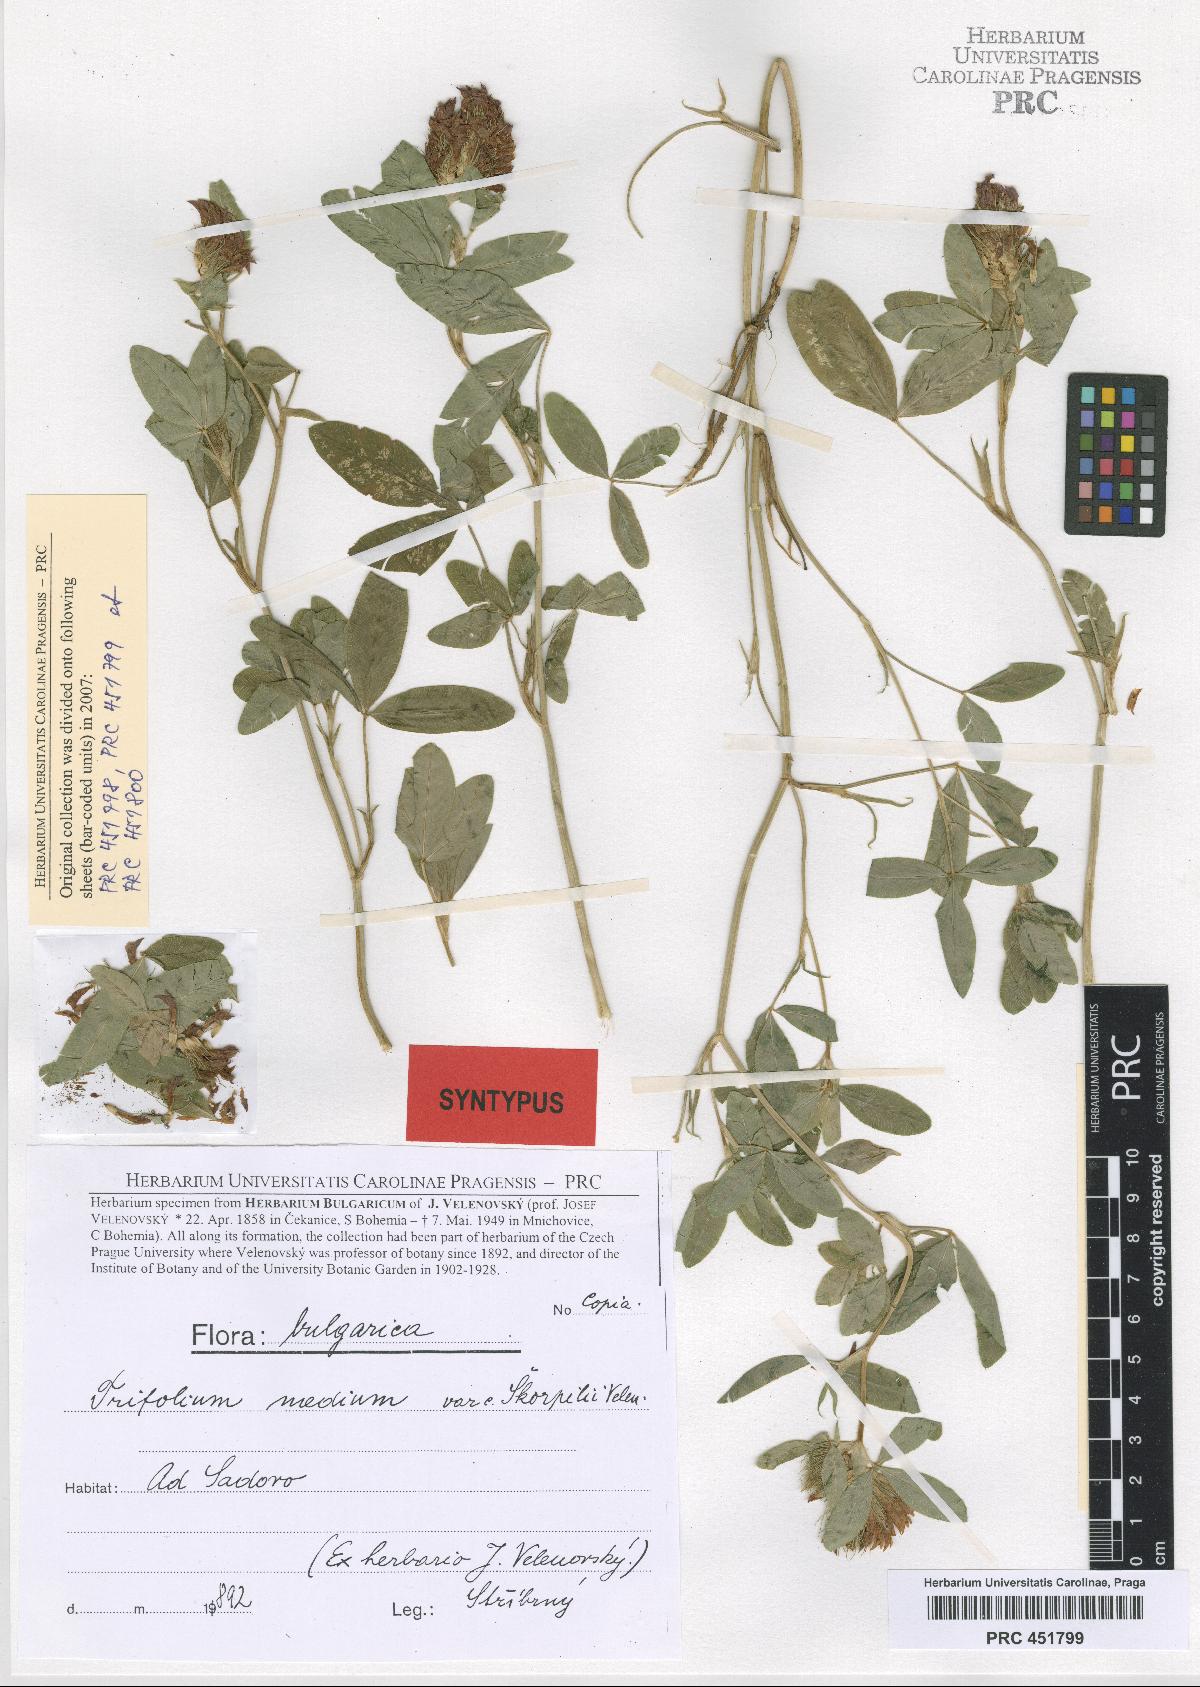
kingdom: Plantae
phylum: Tracheophyta
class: Magnoliopsida
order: Fabales
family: Fabaceae
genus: Trifolium
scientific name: Trifolium medium
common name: Zigzag clover
